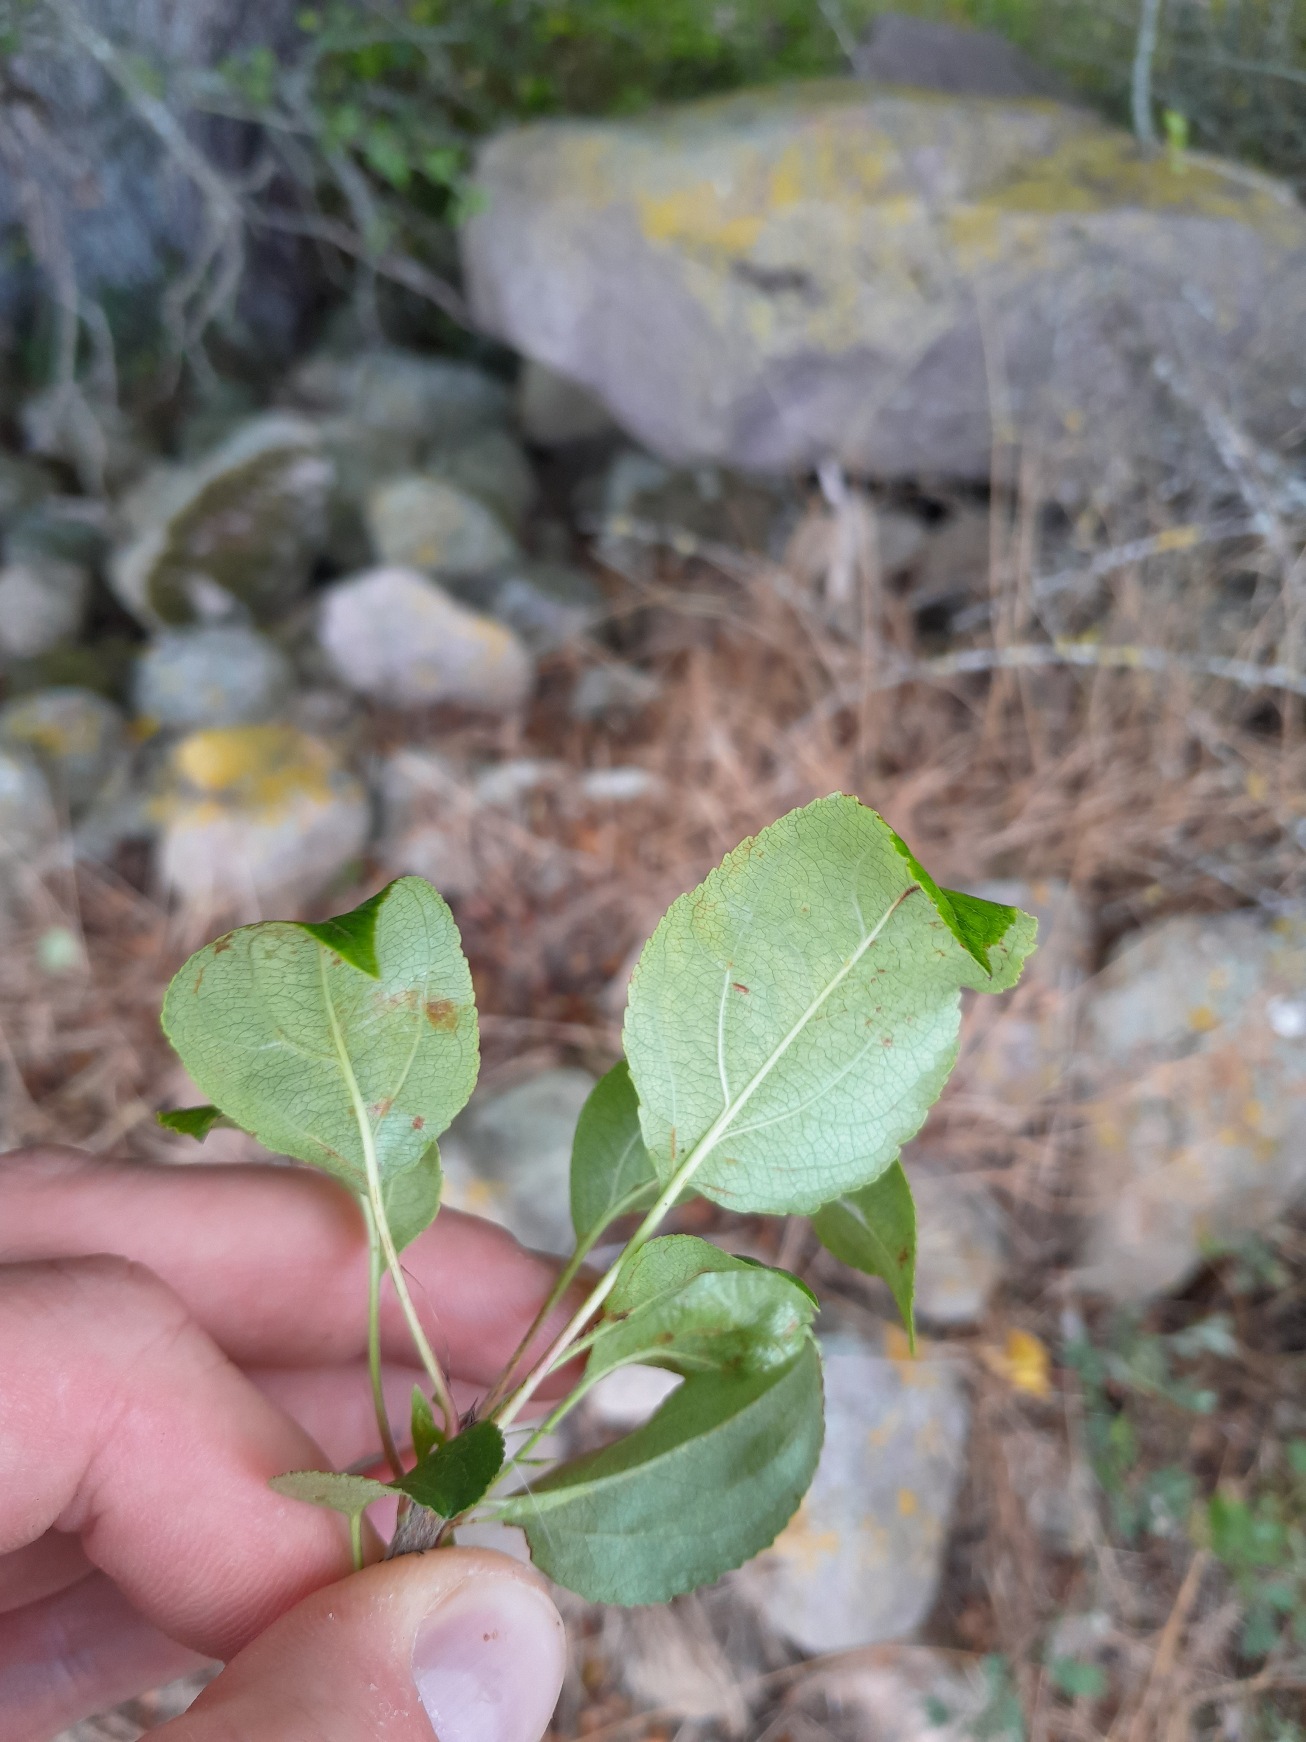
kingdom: Plantae
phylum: Tracheophyta
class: Magnoliopsida
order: Rosales
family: Rosaceae
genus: Malus
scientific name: Malus
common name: Æbleslægten
